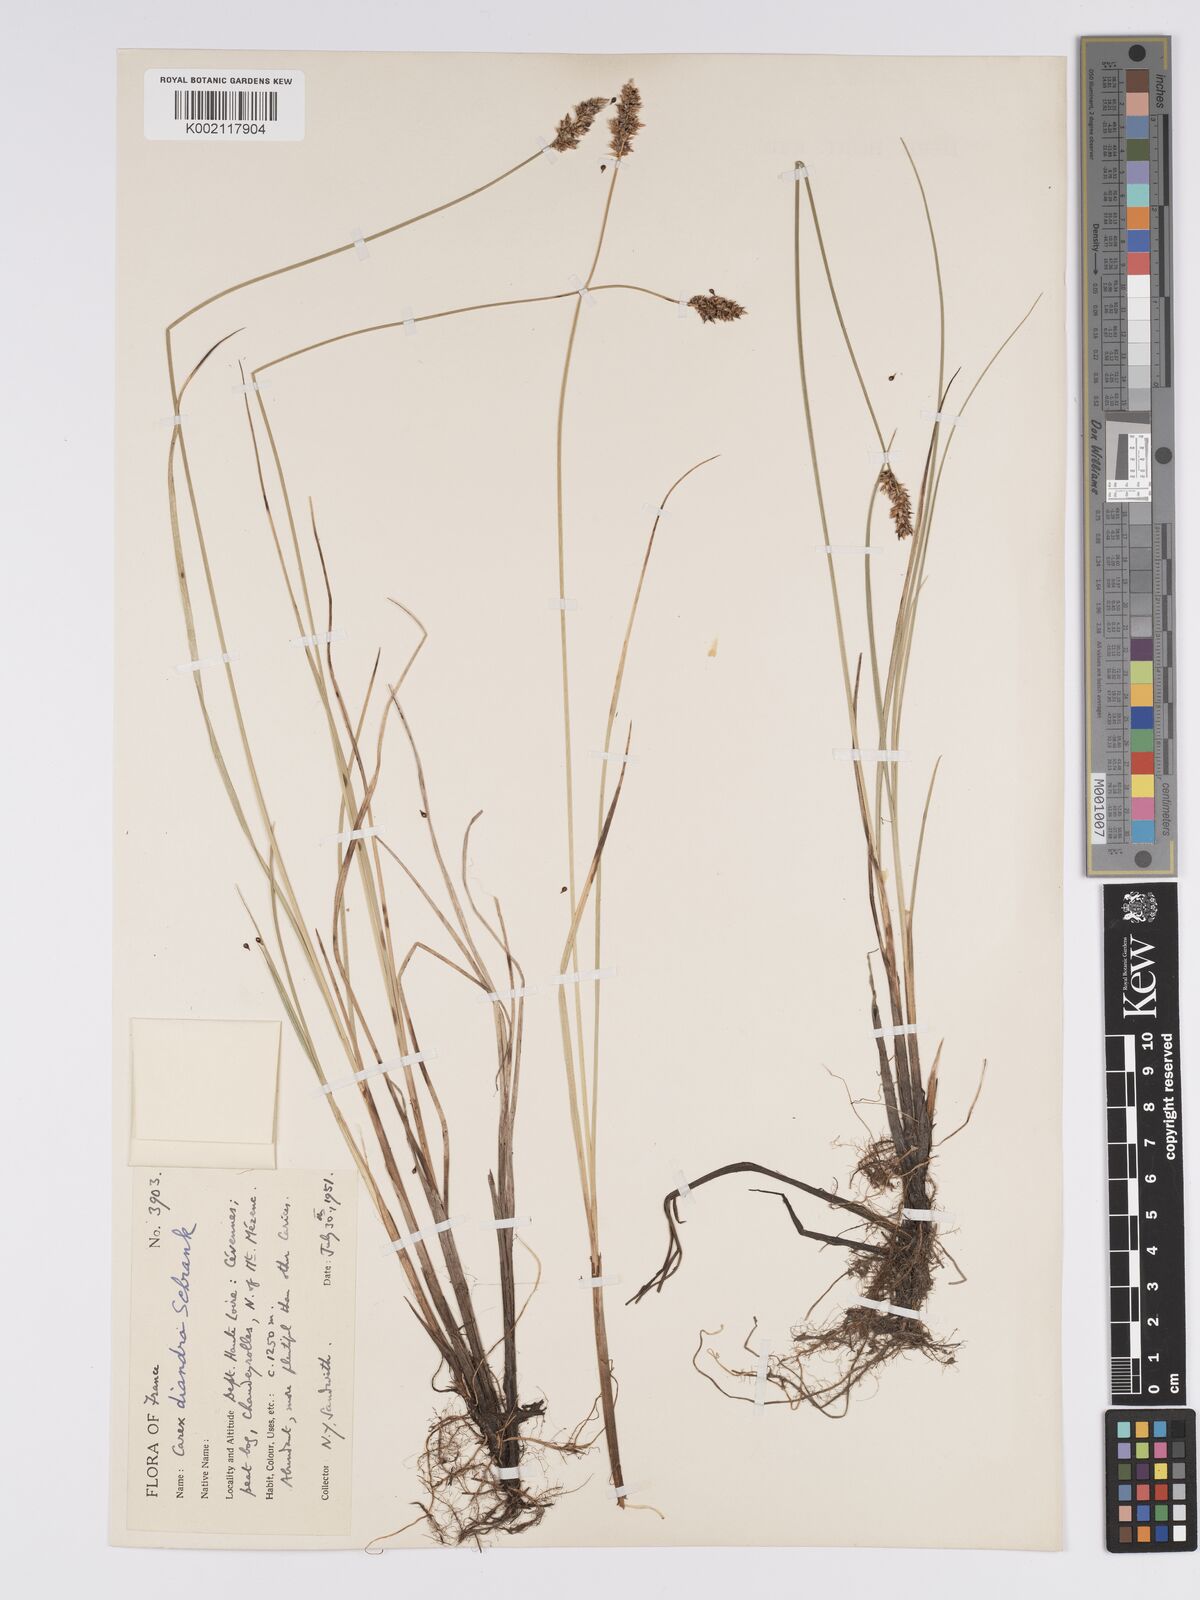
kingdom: Plantae
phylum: Tracheophyta
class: Liliopsida
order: Poales
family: Cyperaceae
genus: Carex
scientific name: Carex diandra
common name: Lesser tussock-sedge
